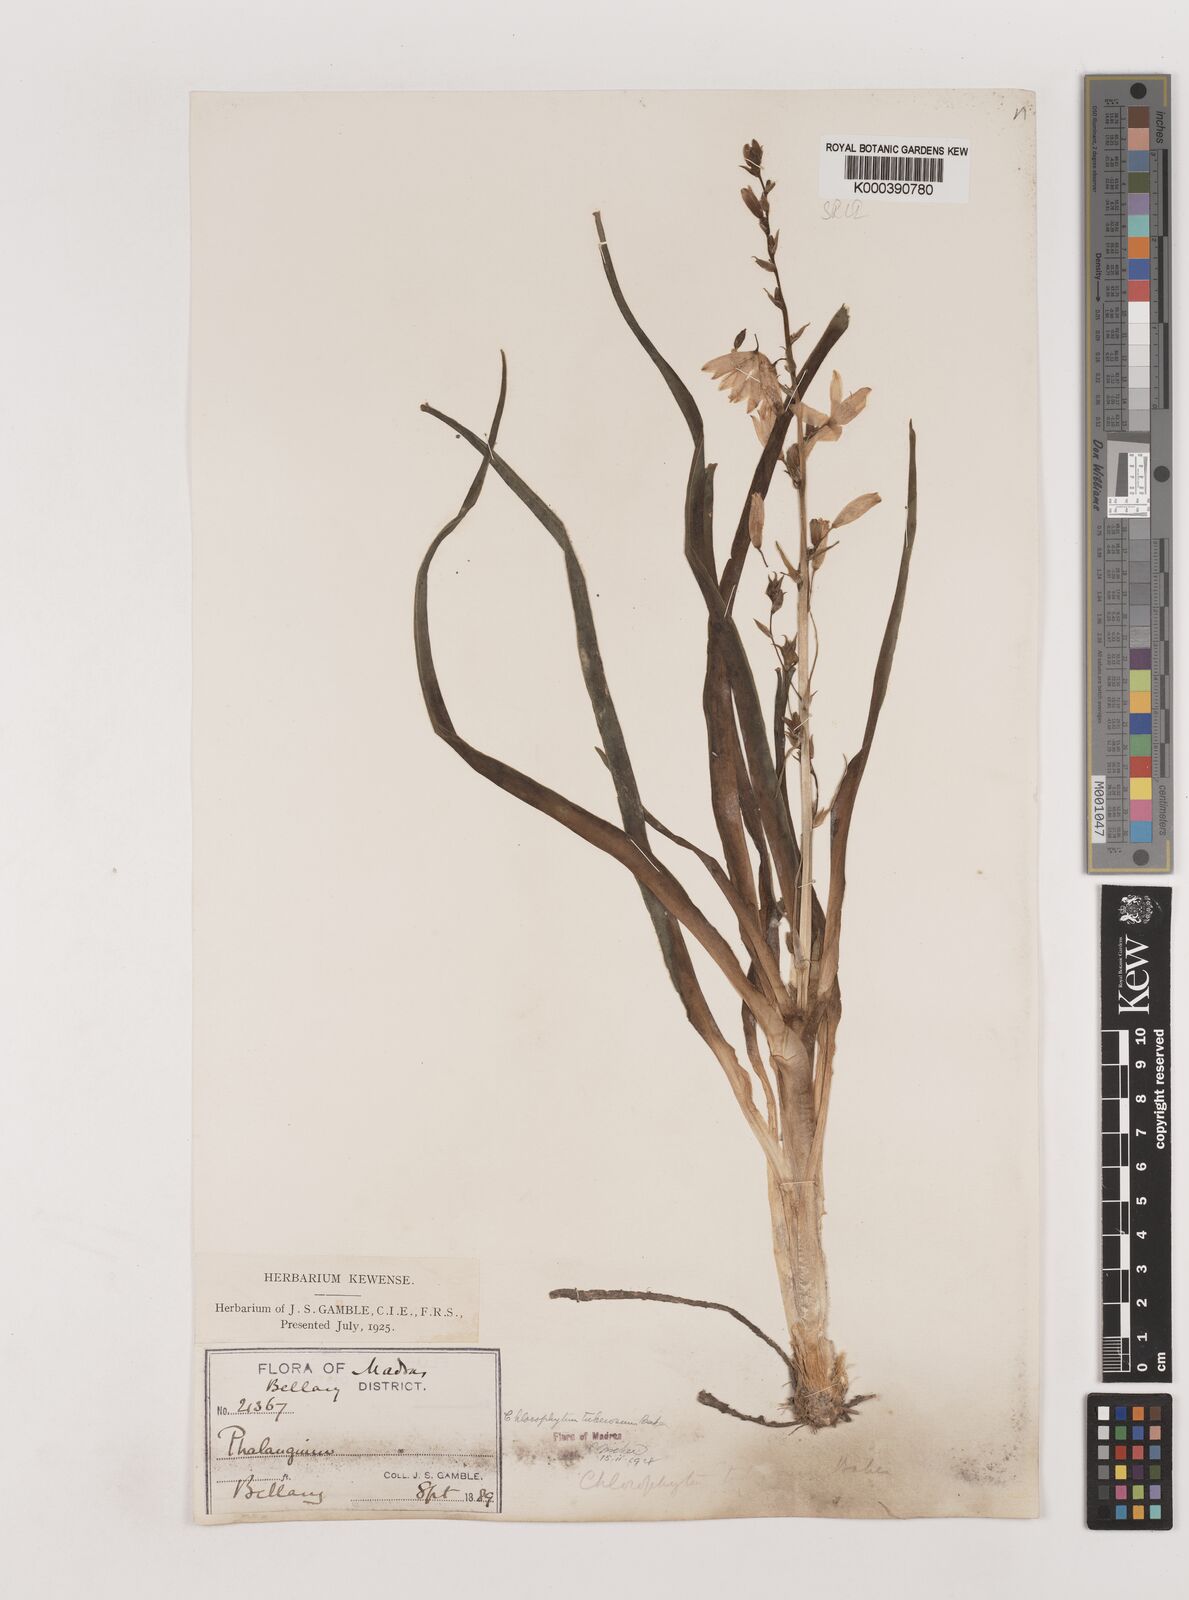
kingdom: Plantae
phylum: Tracheophyta
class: Liliopsida
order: Asparagales
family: Asparagaceae
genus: Chlorophytum
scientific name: Chlorophytum tuberosum
